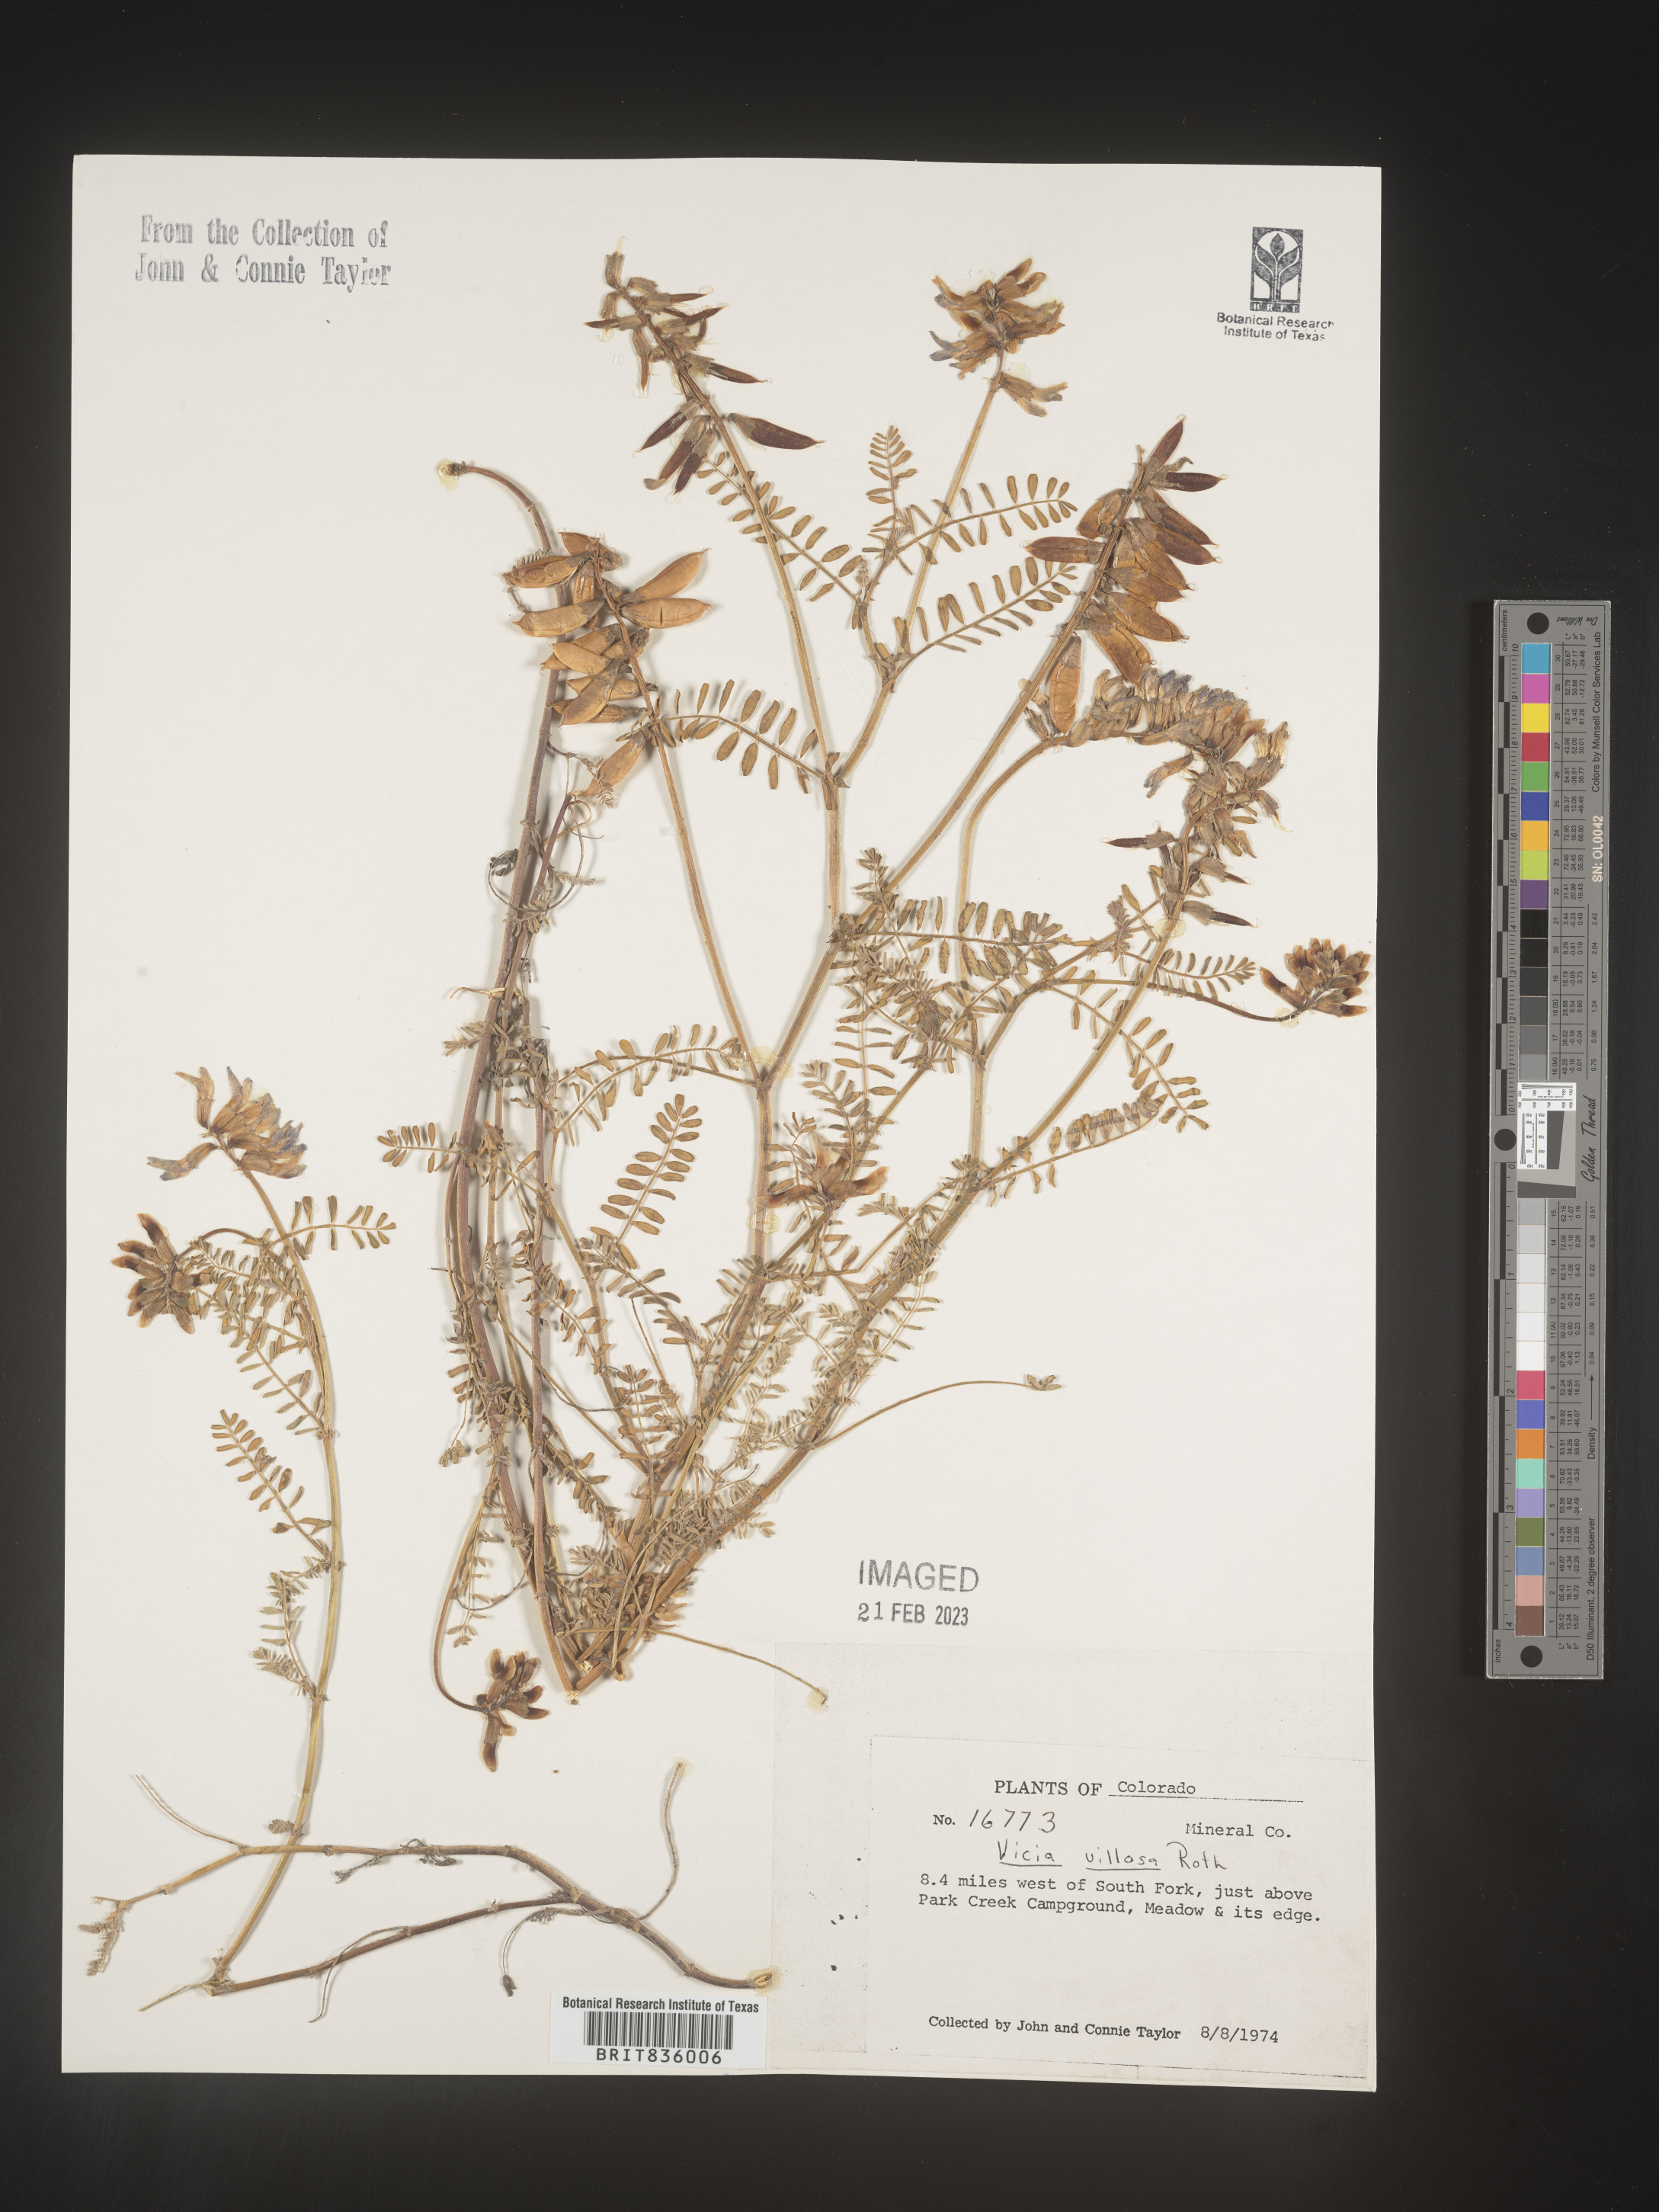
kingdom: Plantae
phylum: Tracheophyta
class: Magnoliopsida
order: Fabales
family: Fabaceae
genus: Vicia
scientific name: Vicia villosa
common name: Fodder vetch
